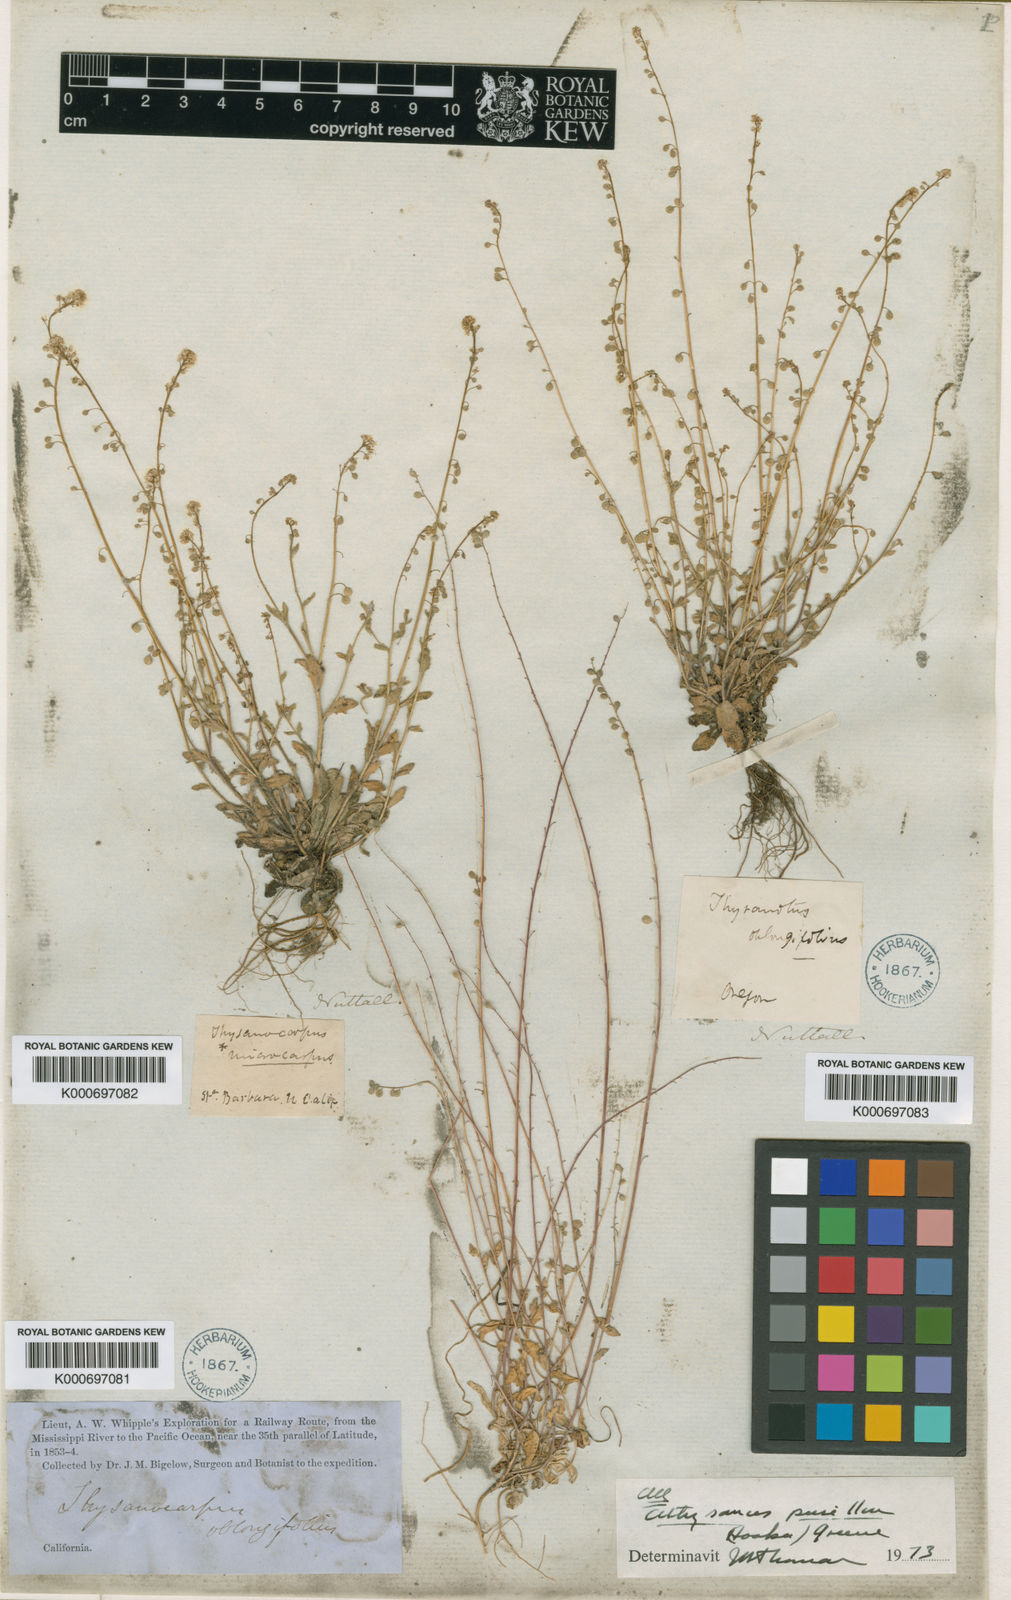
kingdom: Plantae
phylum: Tracheophyta
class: Magnoliopsida
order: Brassicales
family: Brassicaceae
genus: Athysanus
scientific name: Athysanus pusillus
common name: Common sandweed
